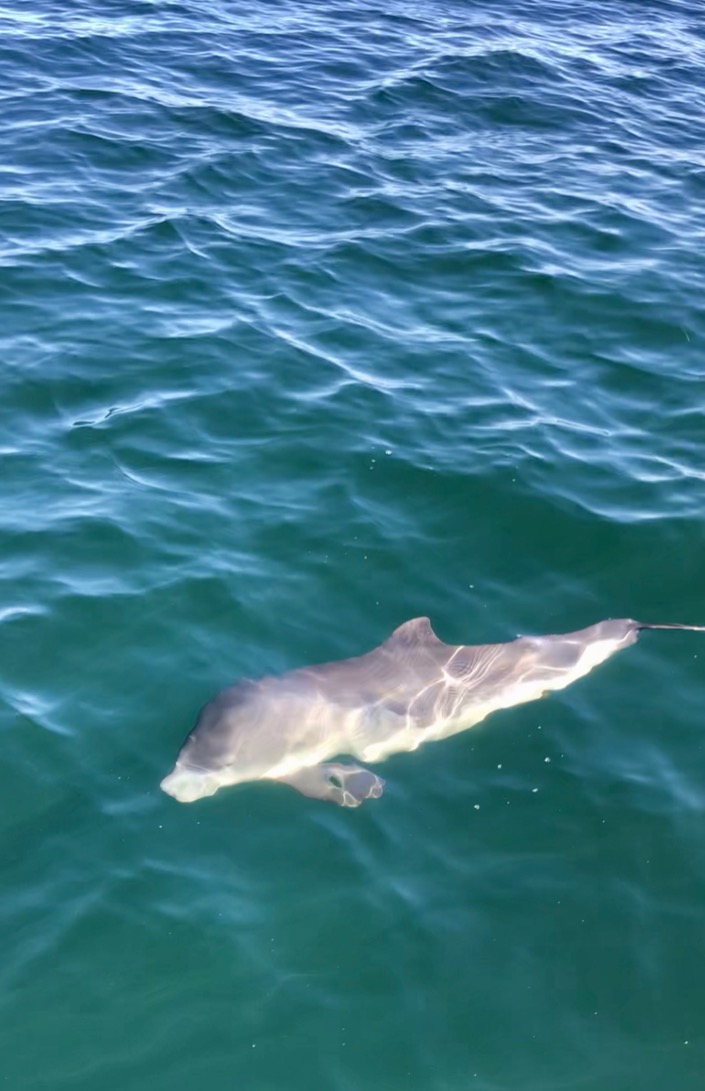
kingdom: Animalia
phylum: Chordata
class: Mammalia
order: Cetacea
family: Phocoenidae
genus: Phocoena
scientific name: Phocoena phocoena
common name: Marsvin
